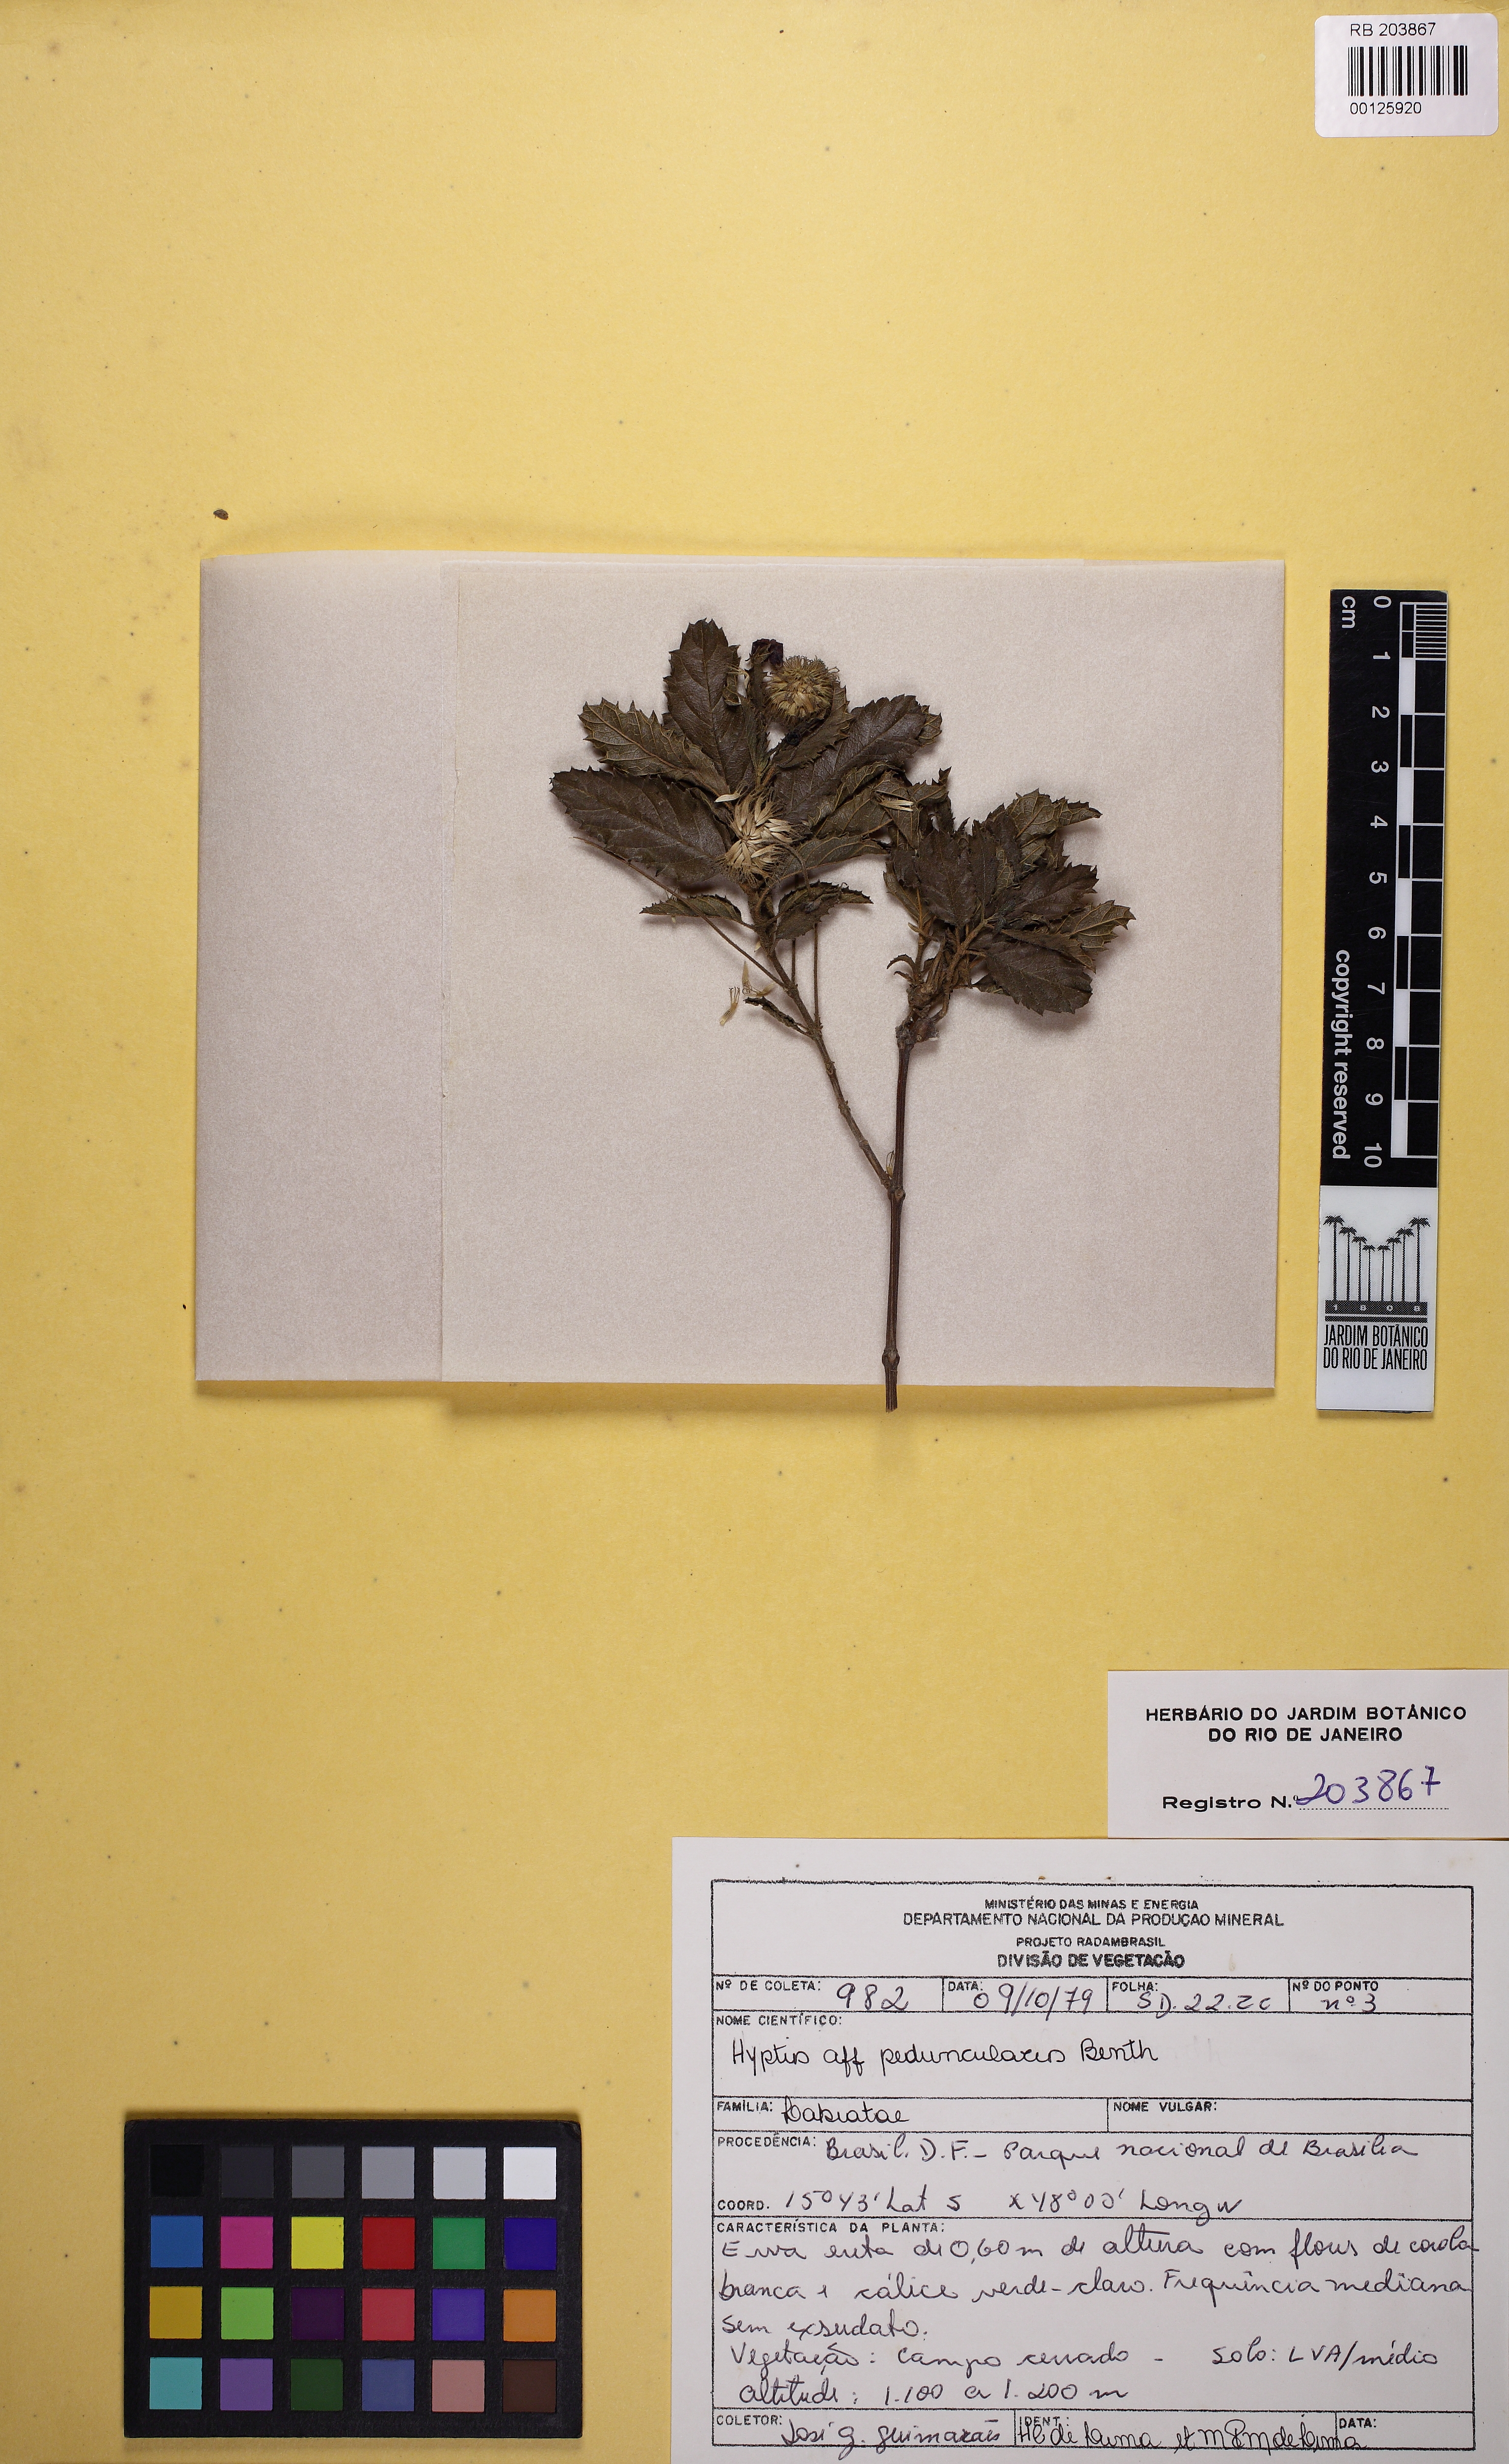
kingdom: Plantae
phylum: Tracheophyta
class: Magnoliopsida
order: Lamiales
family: Lamiaceae
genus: Cyanocephalus
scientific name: Cyanocephalus peduncularis
